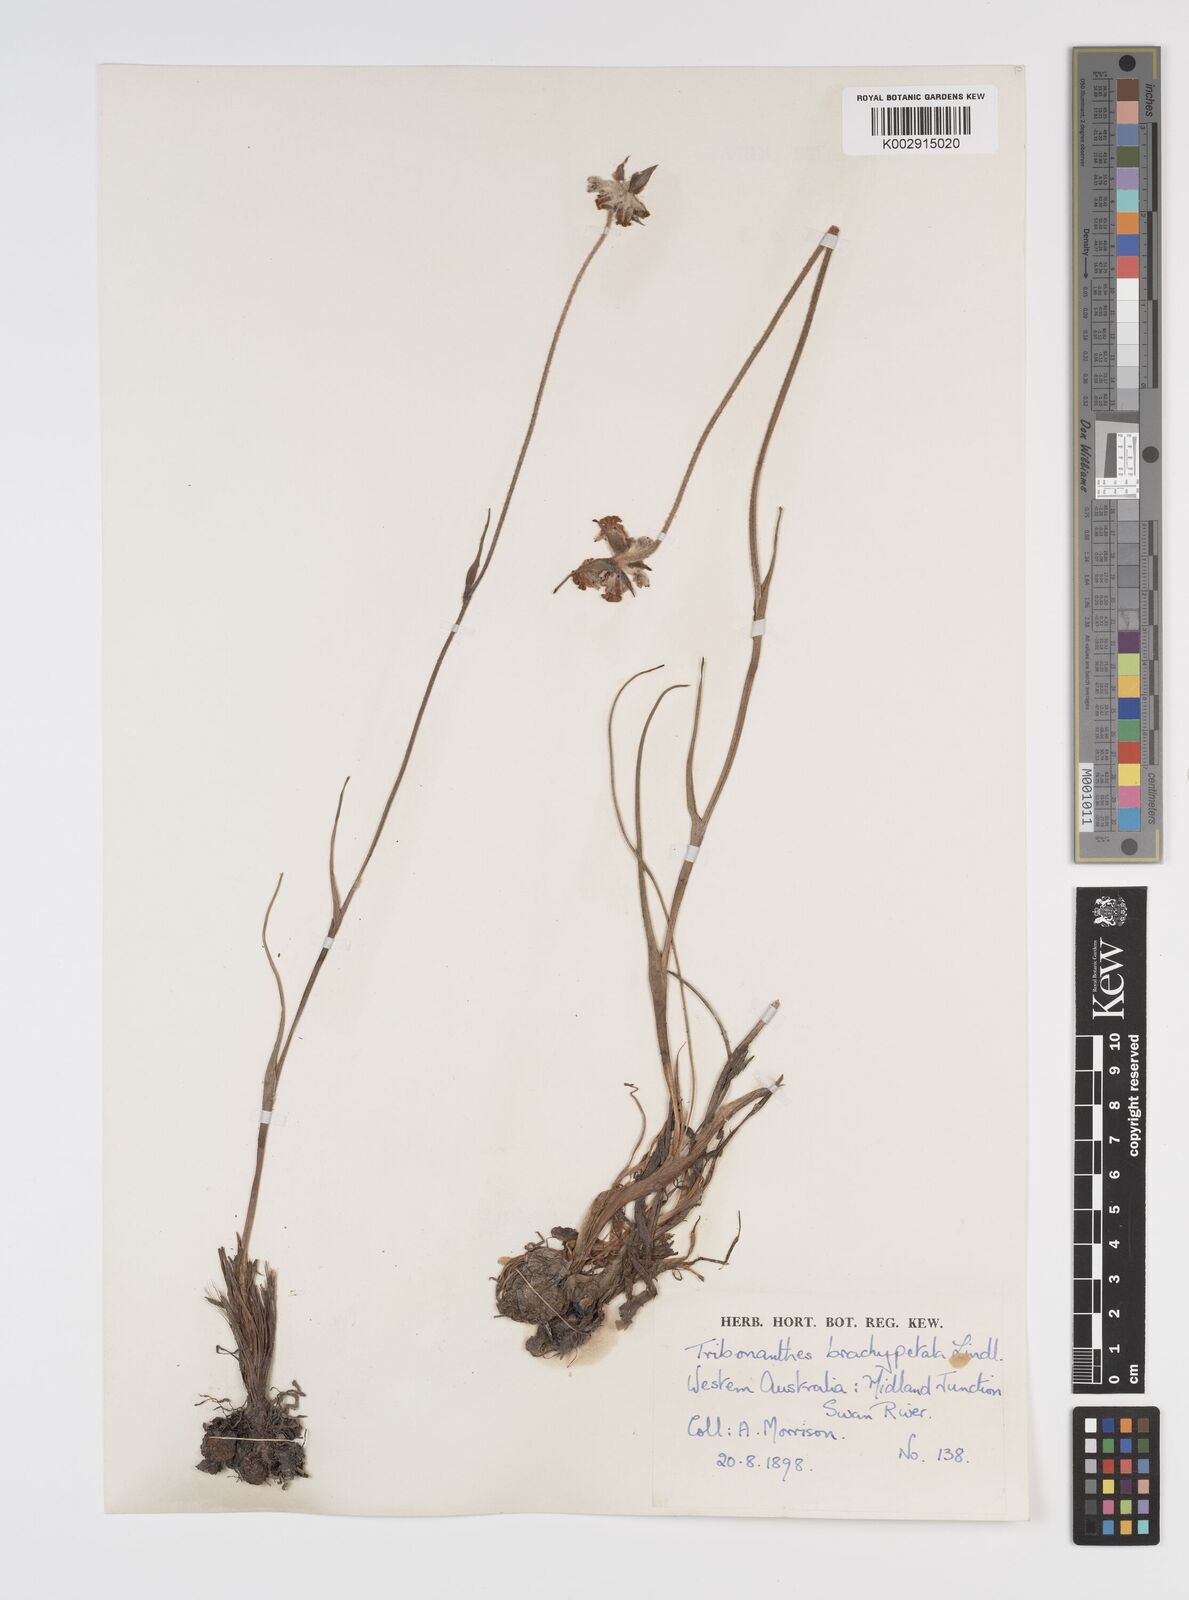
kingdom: Plantae
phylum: Tracheophyta
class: Liliopsida
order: Commelinales
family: Haemodoraceae
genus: Tribonanthes
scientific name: Tribonanthes brachypetala
